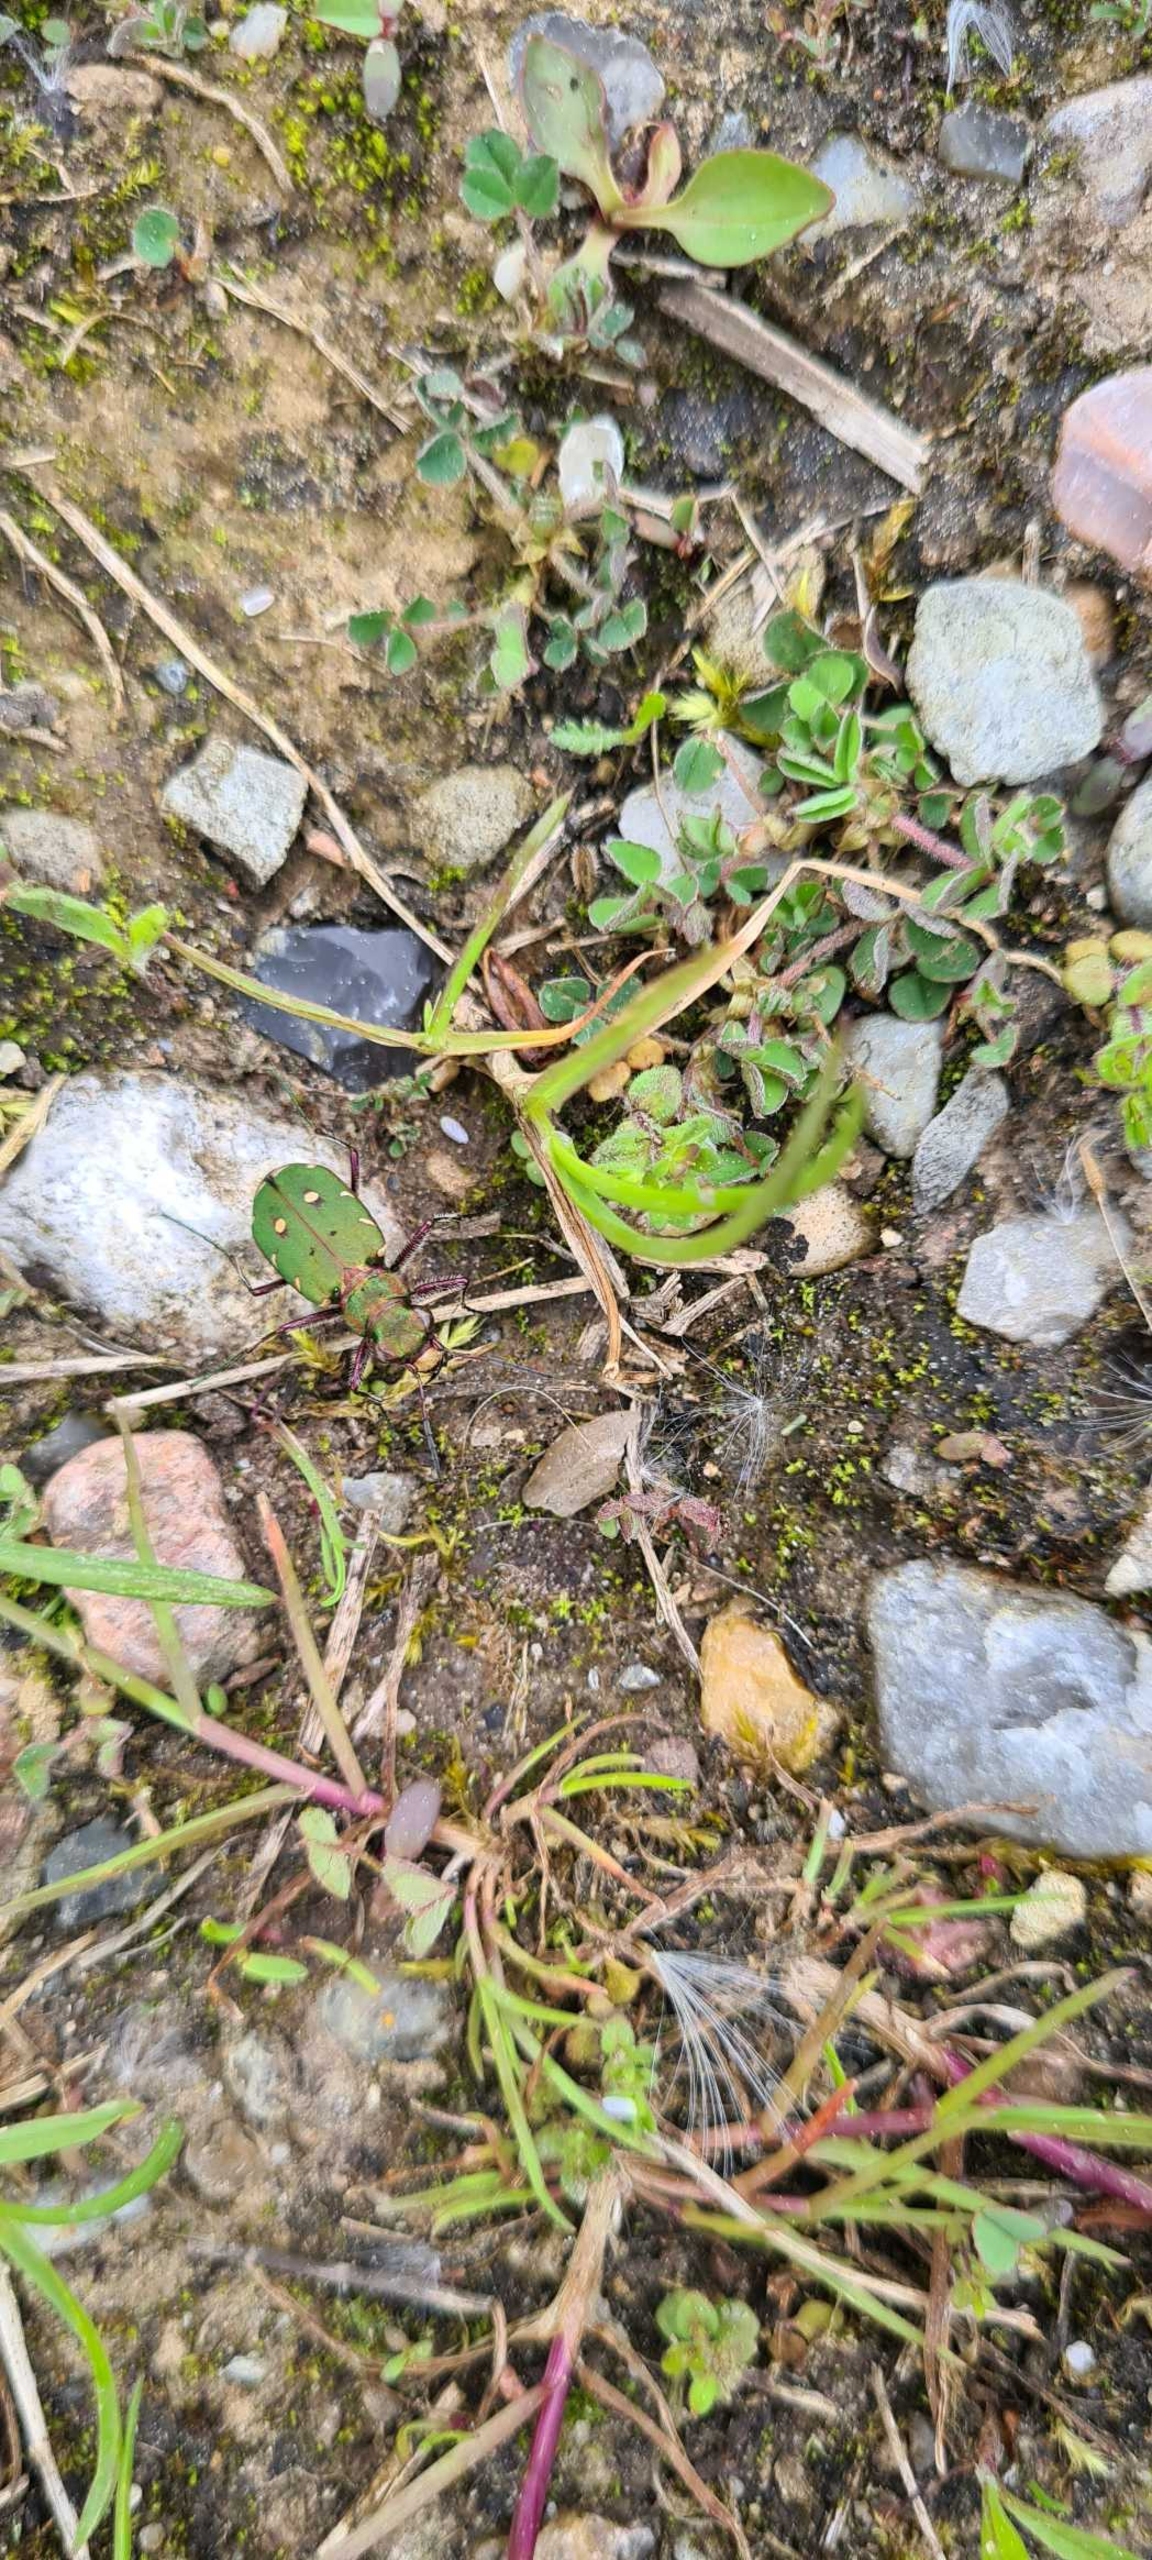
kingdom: Animalia
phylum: Arthropoda
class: Insecta
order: Coleoptera
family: Carabidae
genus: Cicindela
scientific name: Cicindela campestris
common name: Grøn sandspringer
